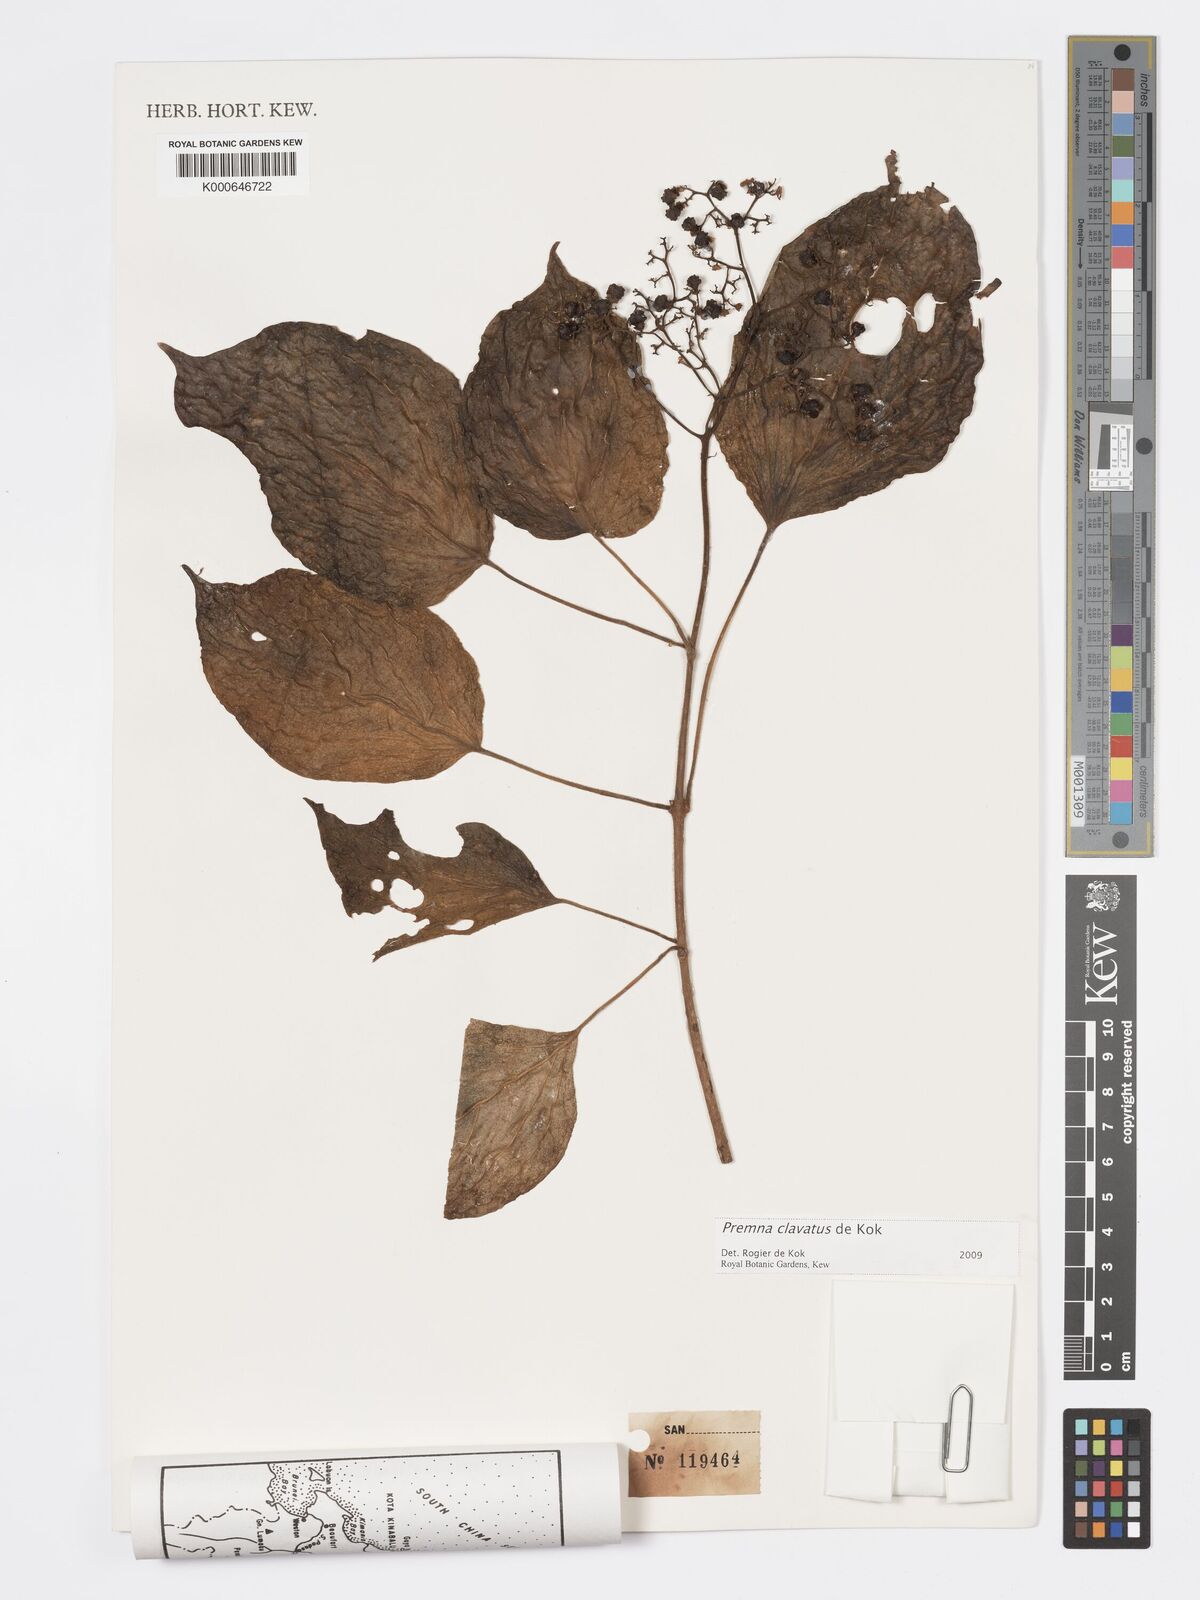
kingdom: Plantae
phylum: Tracheophyta
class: Magnoliopsida
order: Lamiales
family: Lamiaceae
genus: Premna
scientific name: Premna
